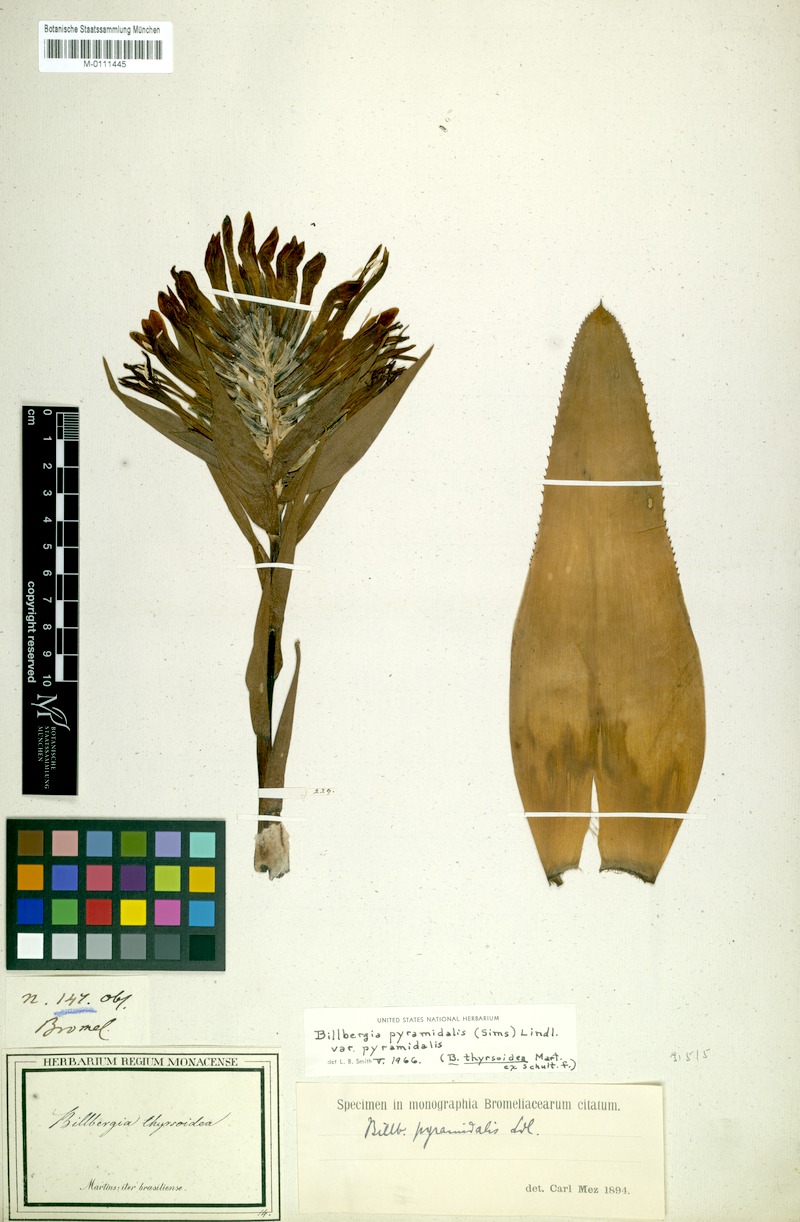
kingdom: Plantae
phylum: Tracheophyta
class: Liliopsida
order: Poales
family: Bromeliaceae
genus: Billbergia
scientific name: Billbergia pyramidalis
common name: Foolproofplant
